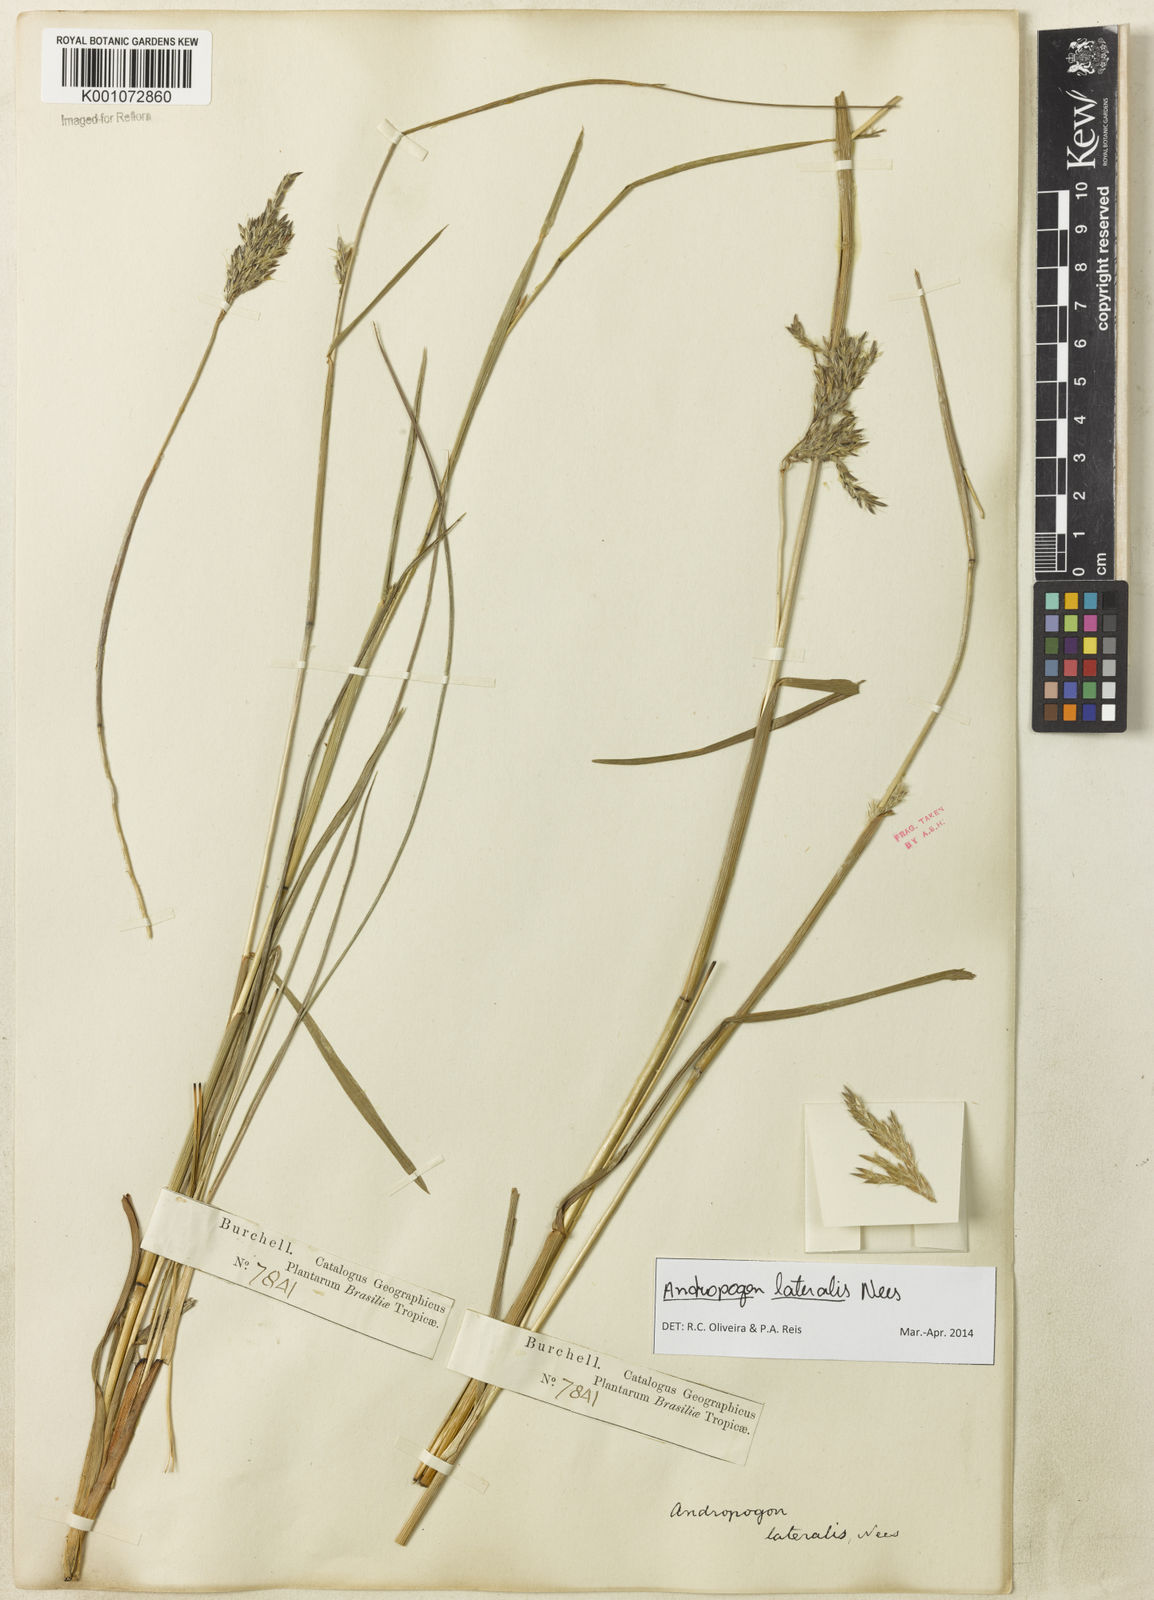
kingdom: Plantae
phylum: Tracheophyta
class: Liliopsida
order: Poales
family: Poaceae
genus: Andropogon
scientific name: Andropogon lateralis
